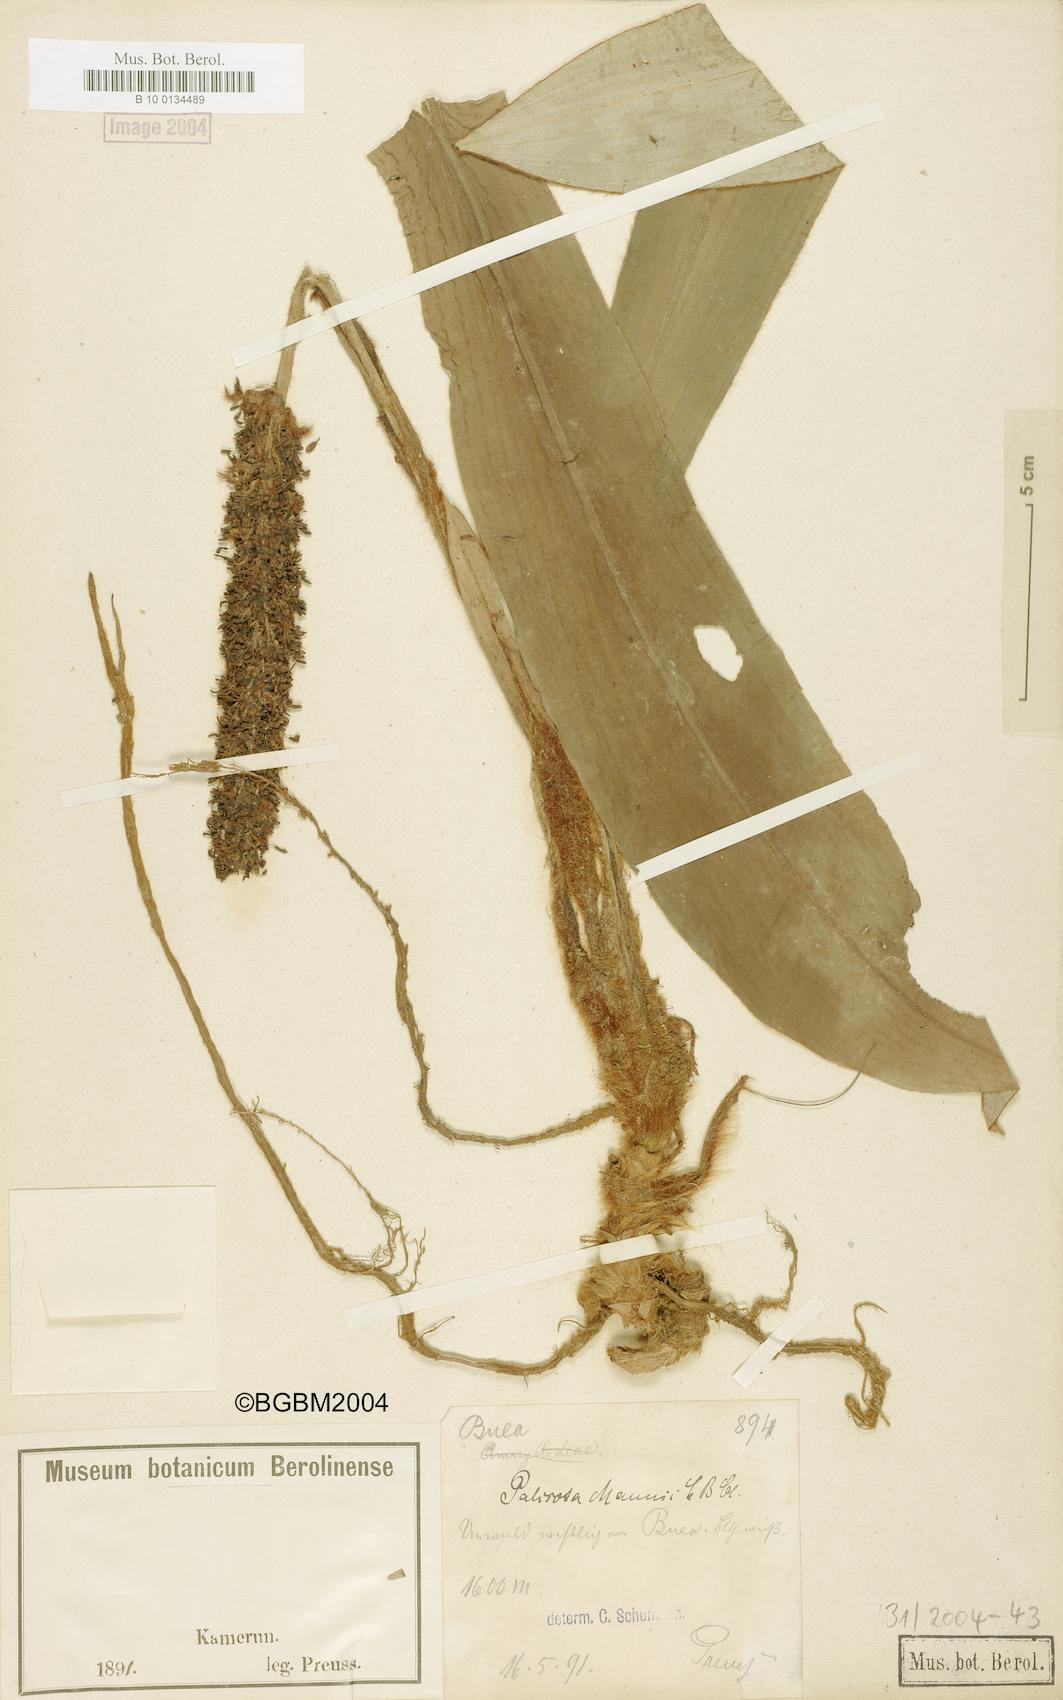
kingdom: Plantae
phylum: Tracheophyta
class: Liliopsida
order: Commelinales
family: Commelinaceae
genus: Palisota
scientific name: Palisota mannii
